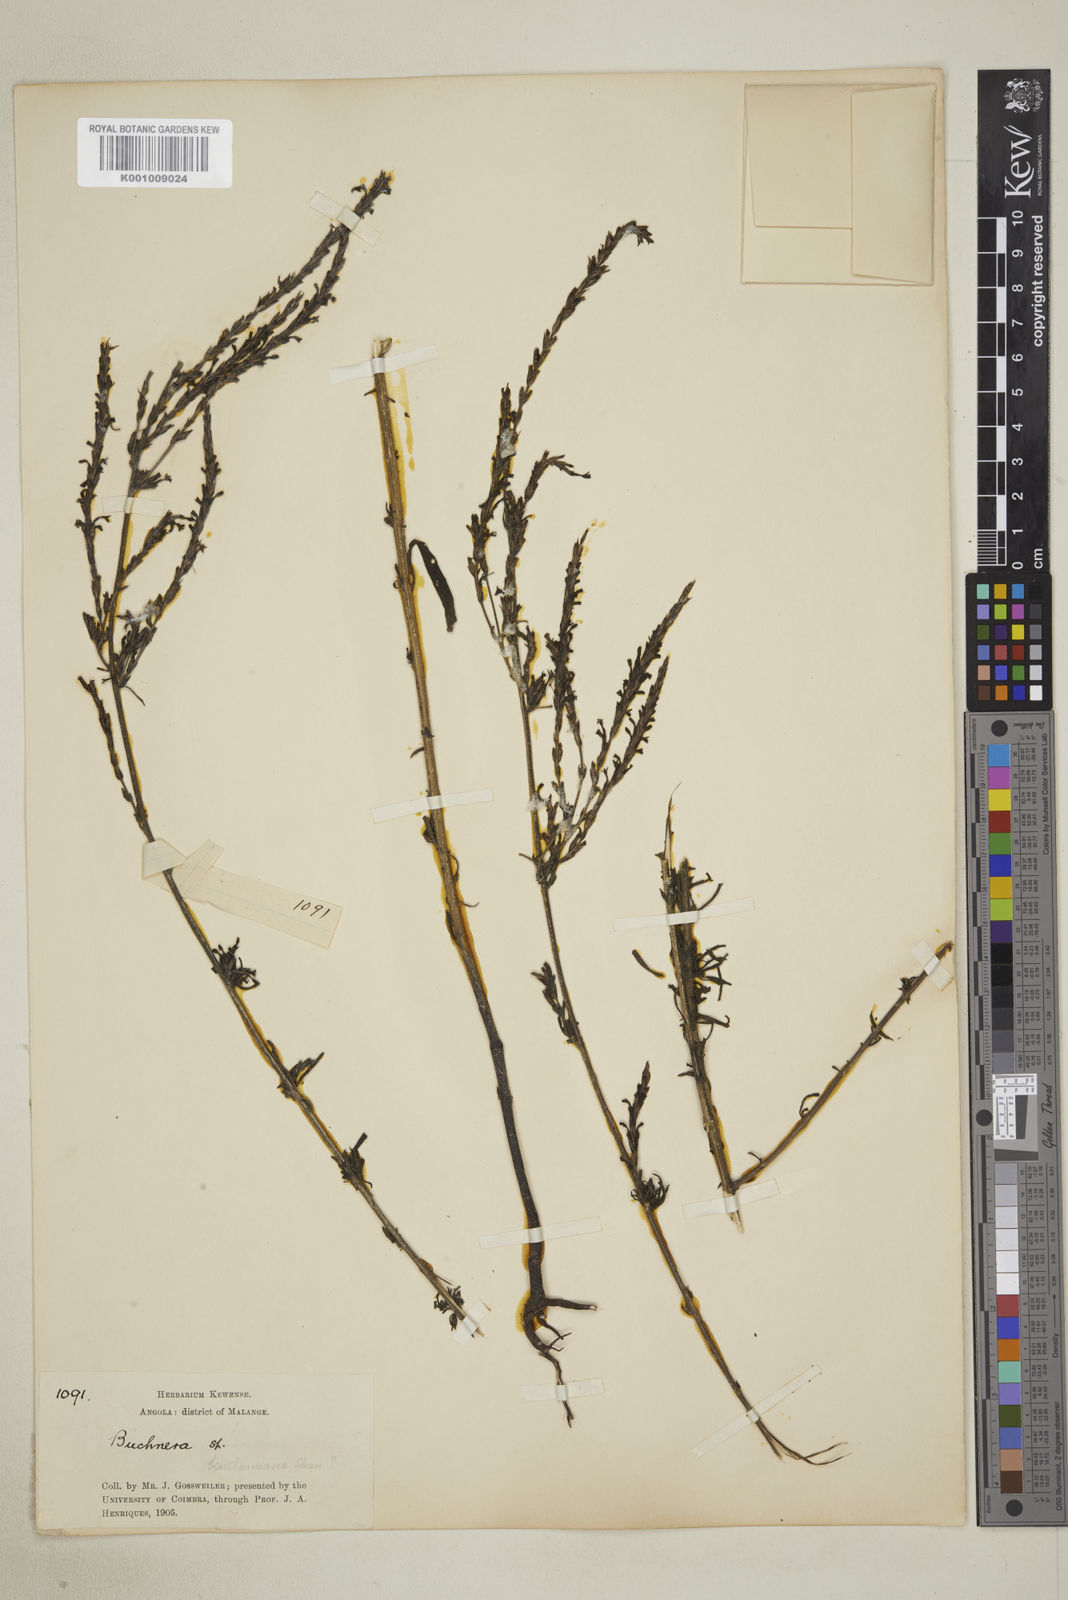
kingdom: Plantae
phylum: Tracheophyta
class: Magnoliopsida
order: Lamiales
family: Orobanchaceae
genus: Buchnera
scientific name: Buchnera nigricans
